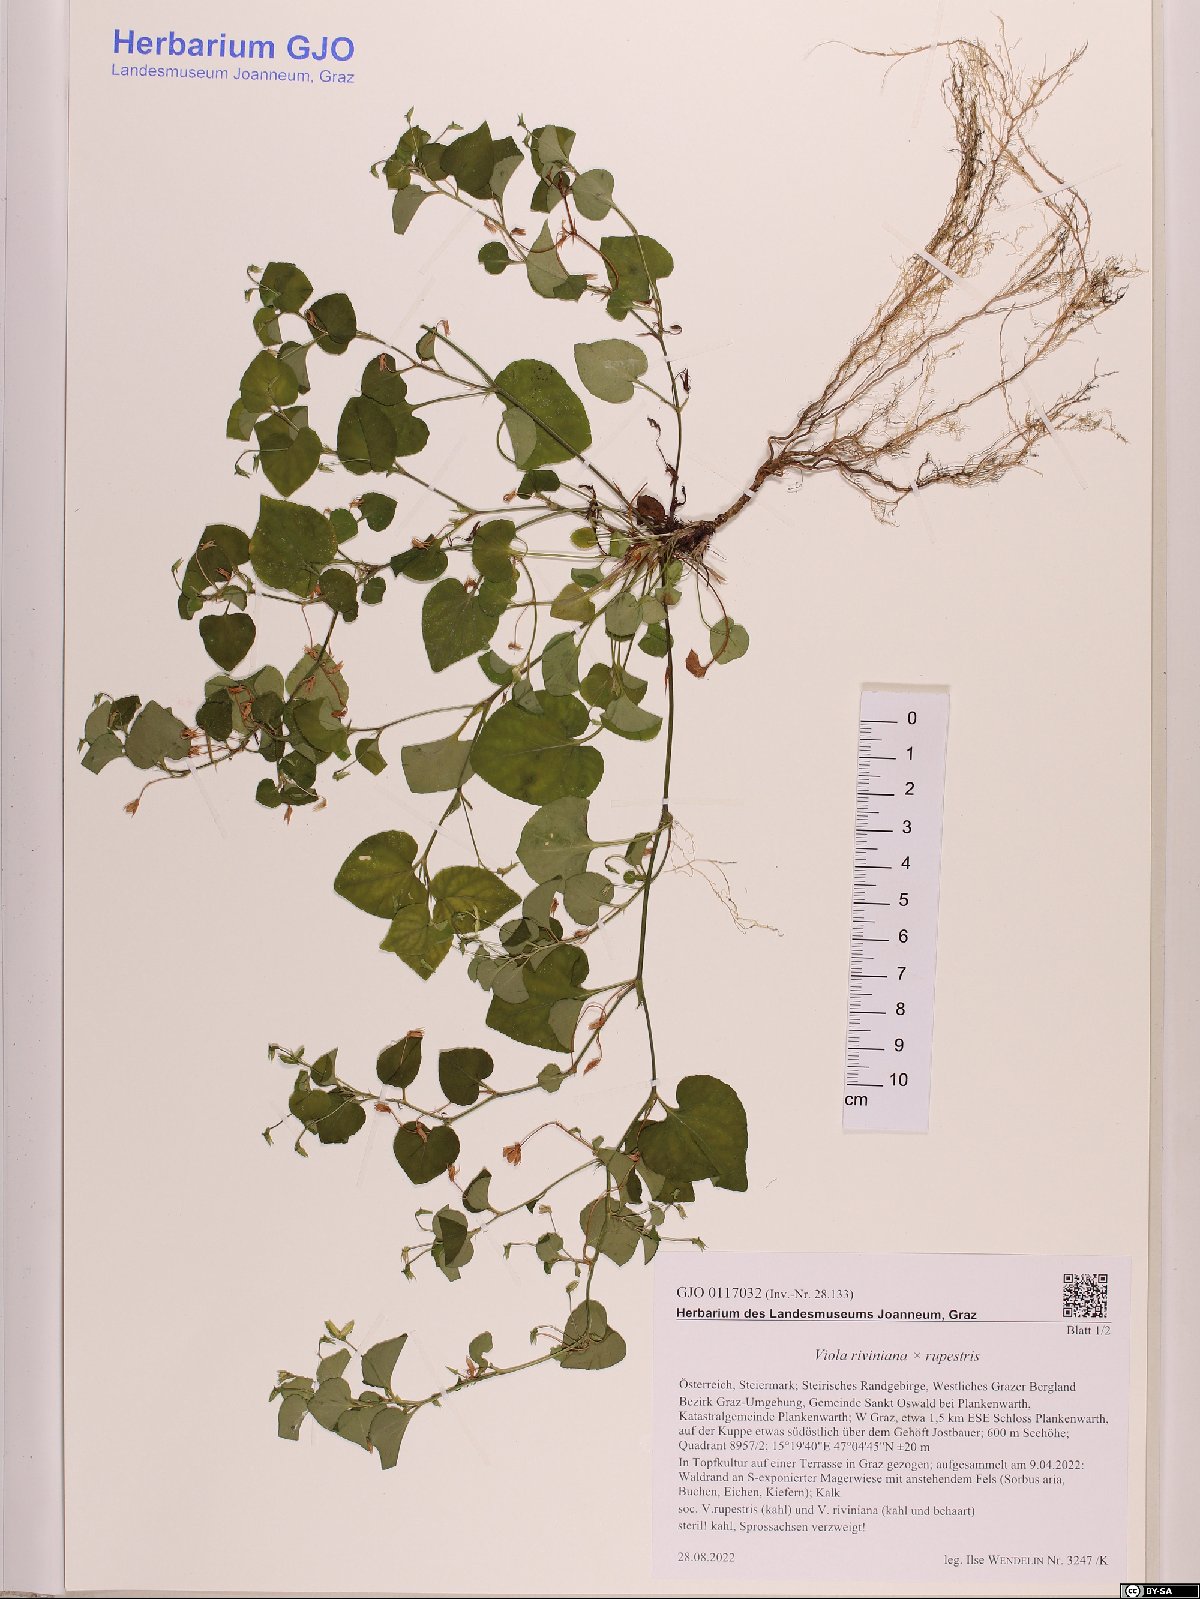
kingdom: Plantae
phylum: Tracheophyta
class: Magnoliopsida
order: Malpighiales
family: Violaceae
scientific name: Violaceae
